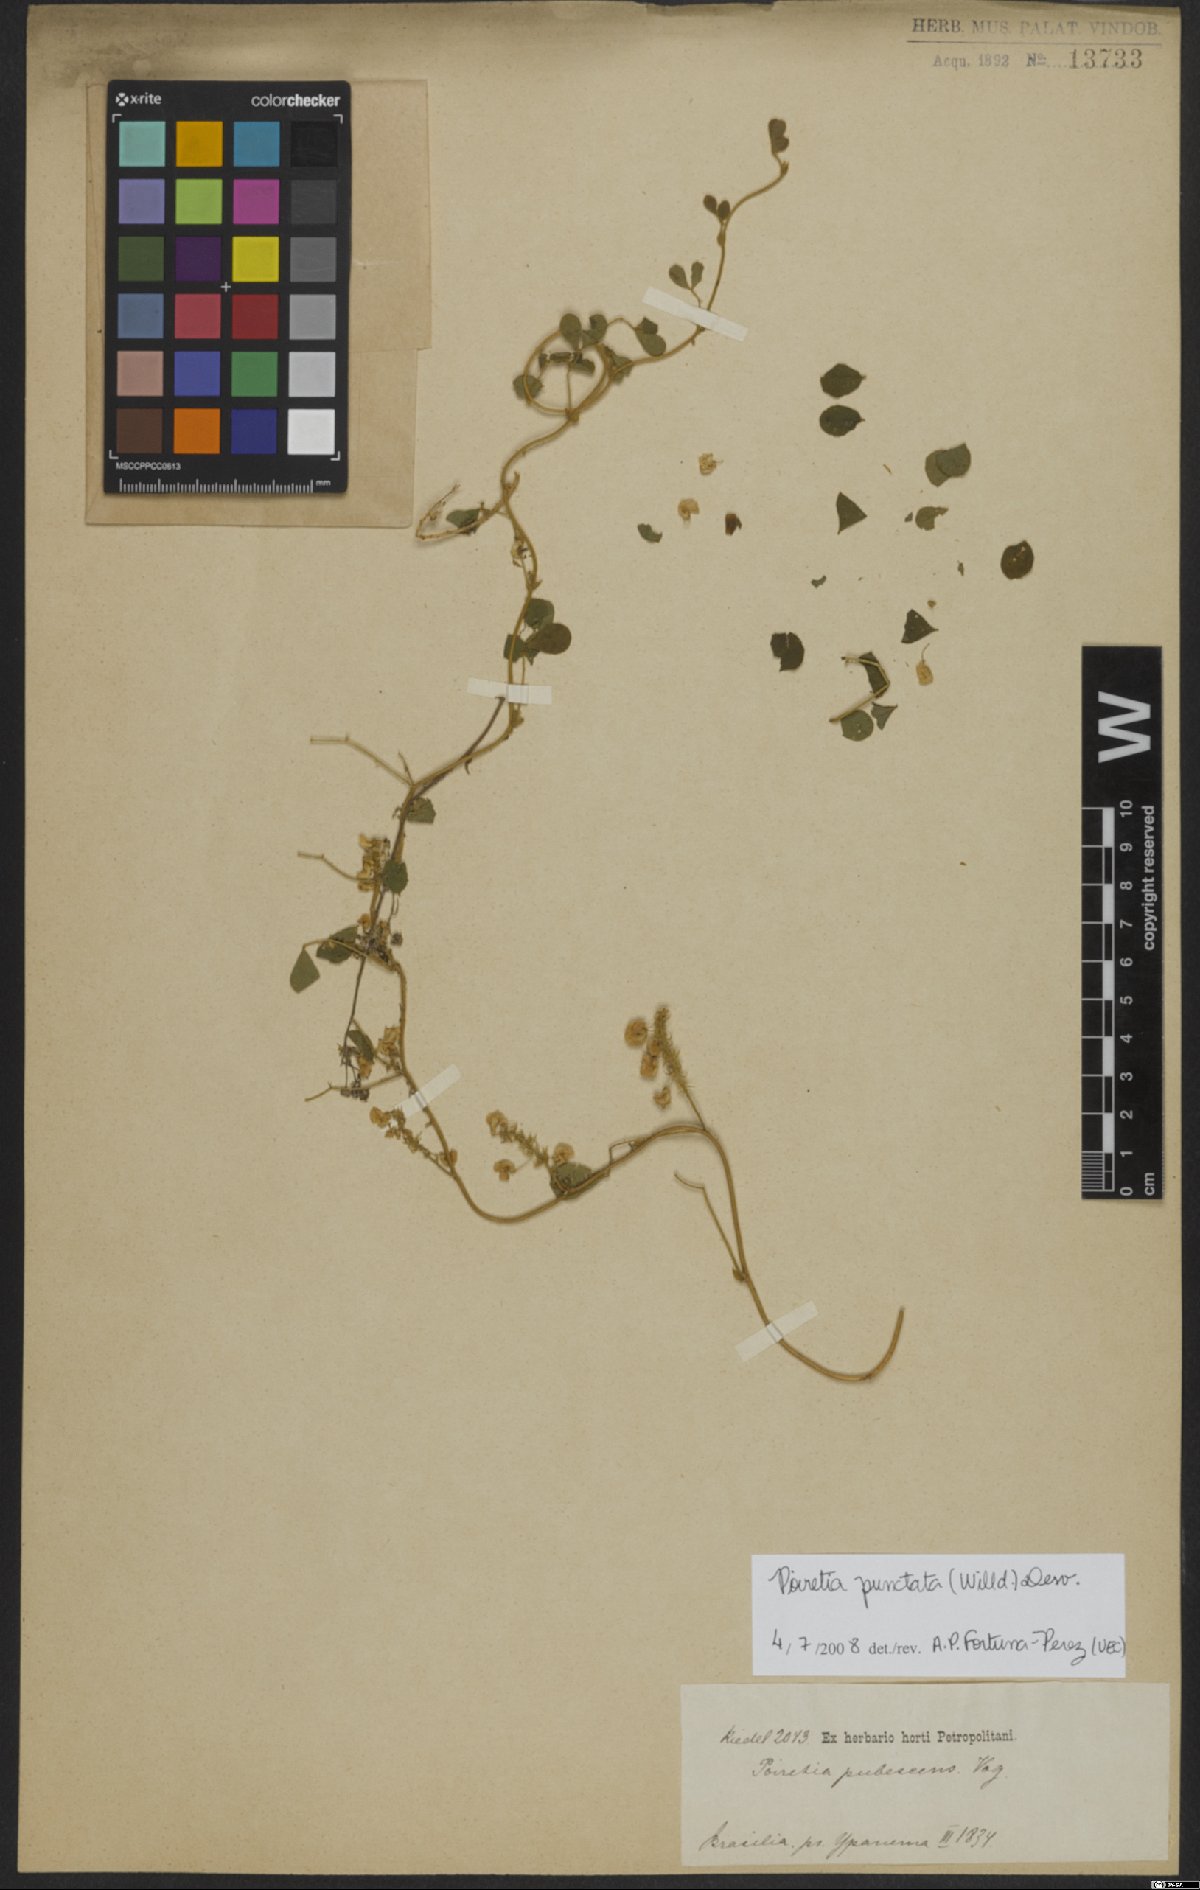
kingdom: Plantae
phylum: Tracheophyta
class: Magnoliopsida
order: Fabales
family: Fabaceae
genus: Poiretia
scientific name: Poiretia punctata
